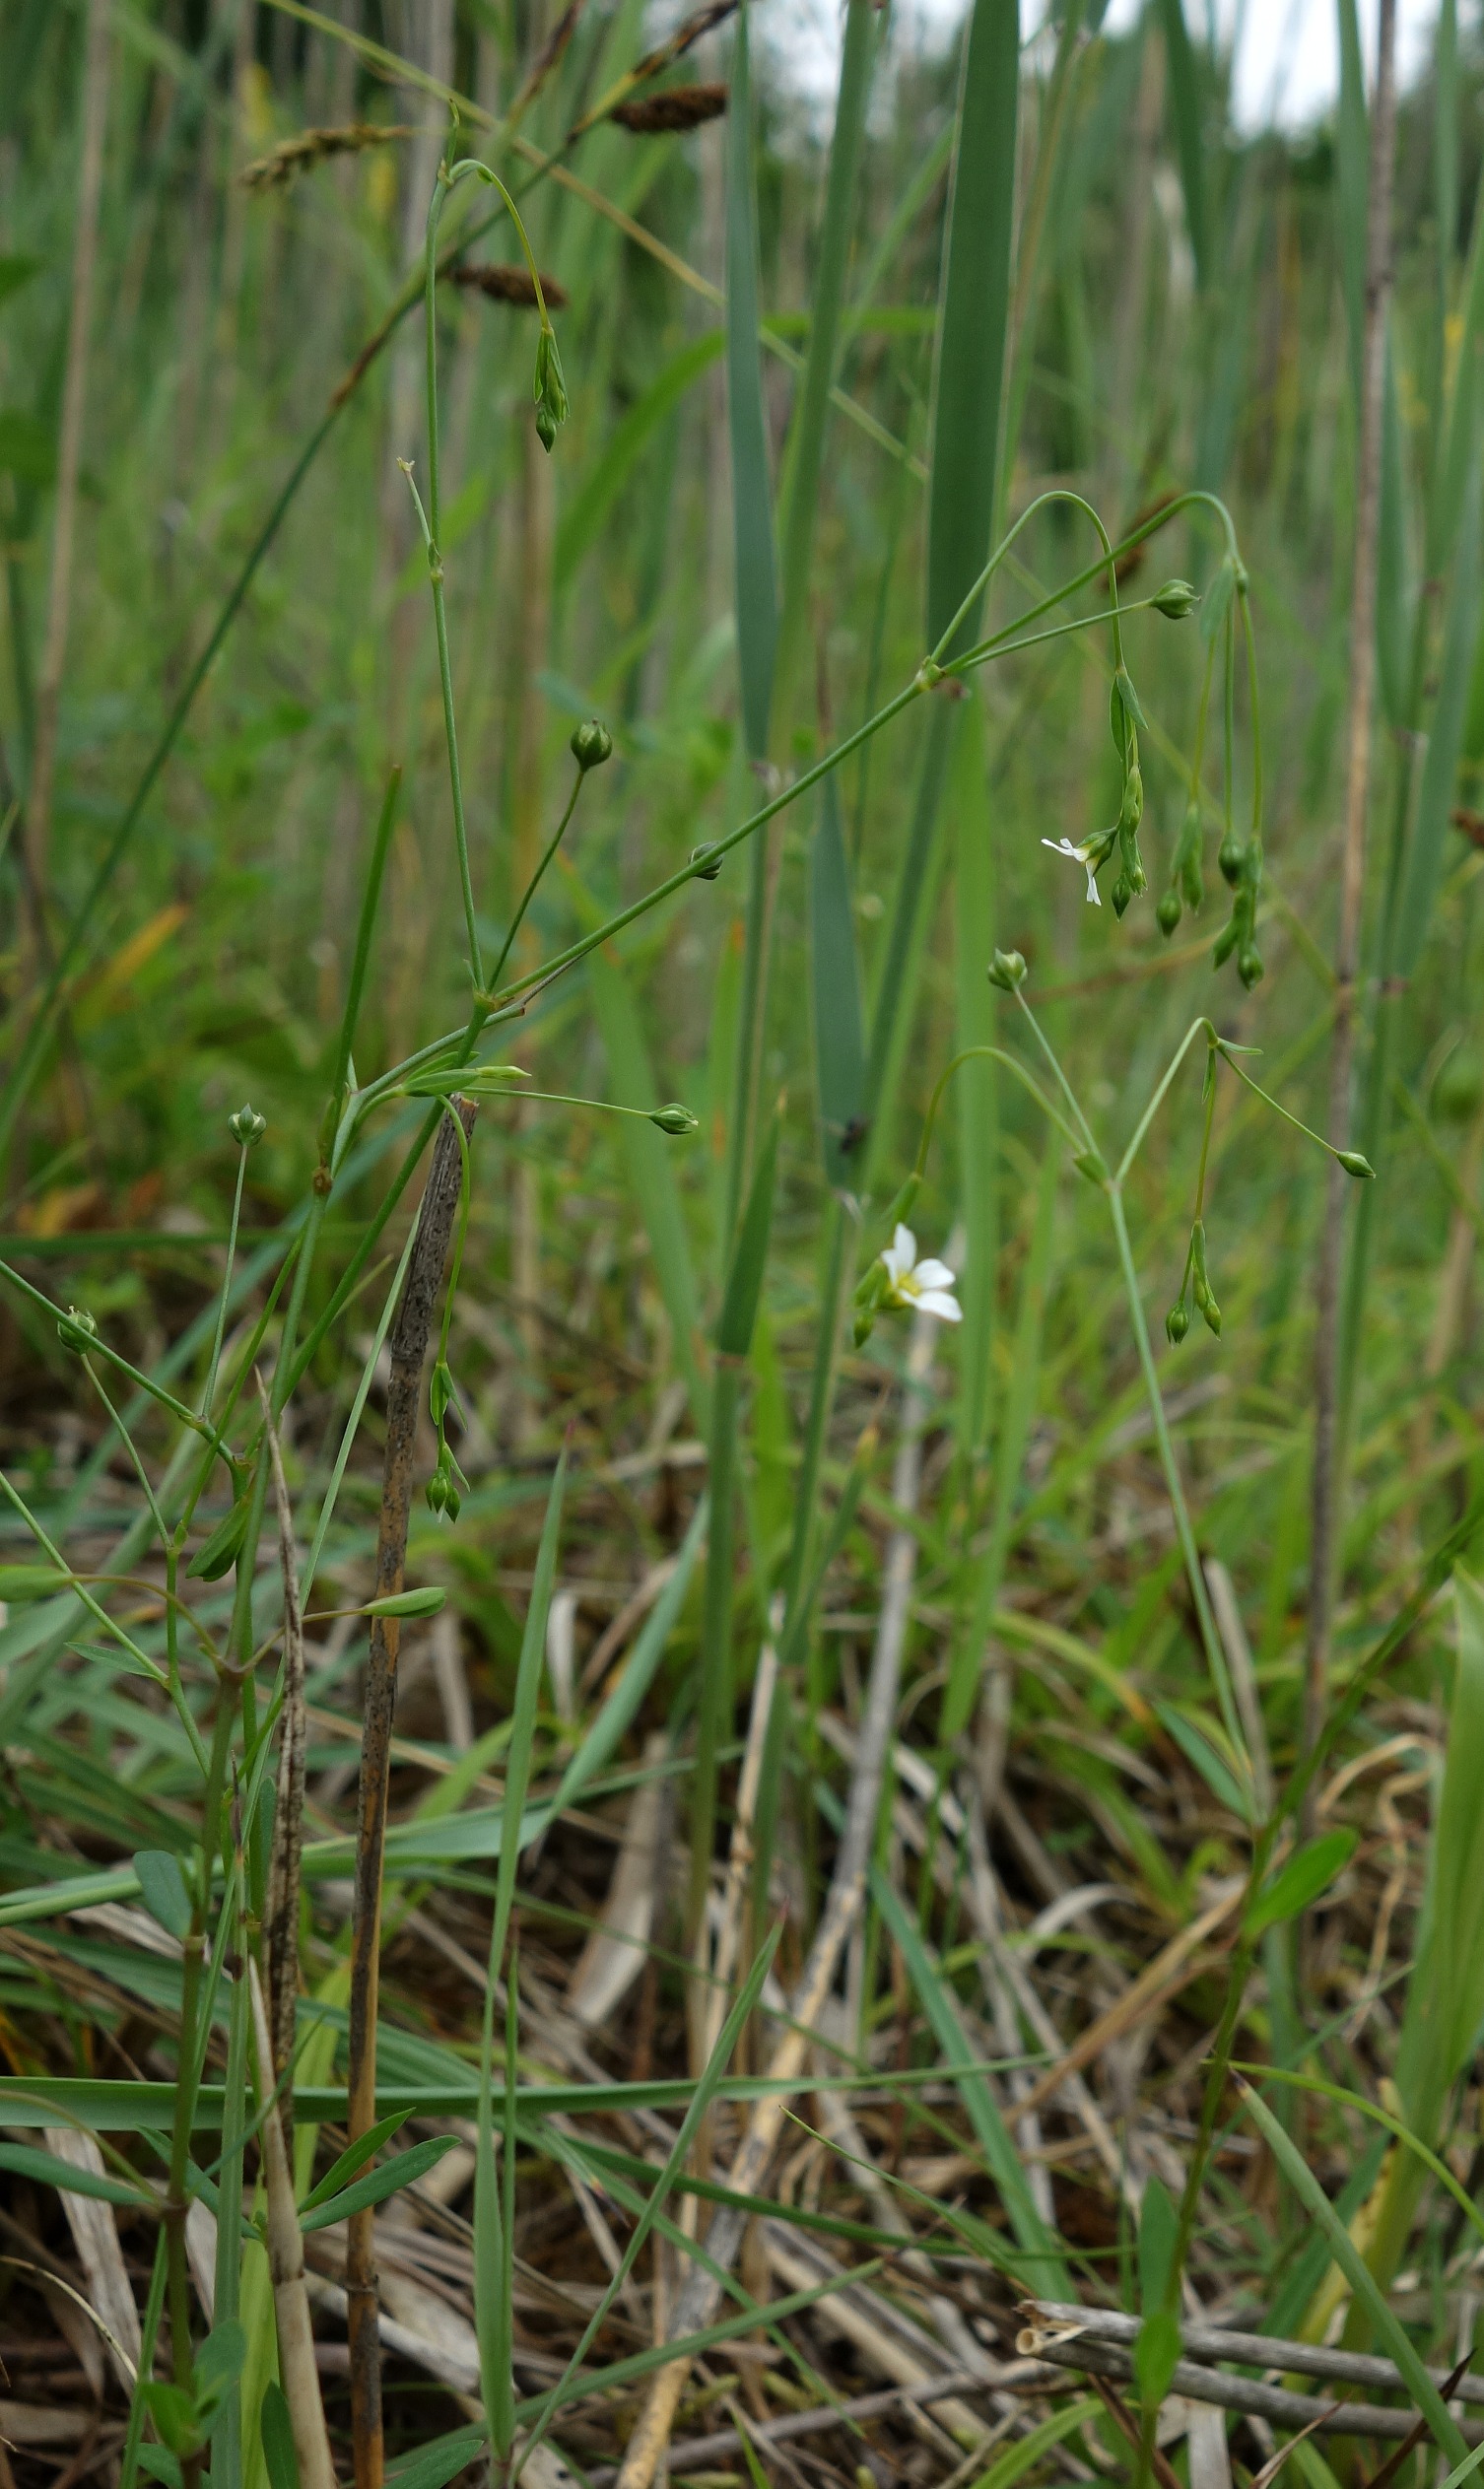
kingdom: Plantae
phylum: Tracheophyta
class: Magnoliopsida
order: Malpighiales
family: Linaceae
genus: Linum
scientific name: Linum catharticum
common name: Vild hør
